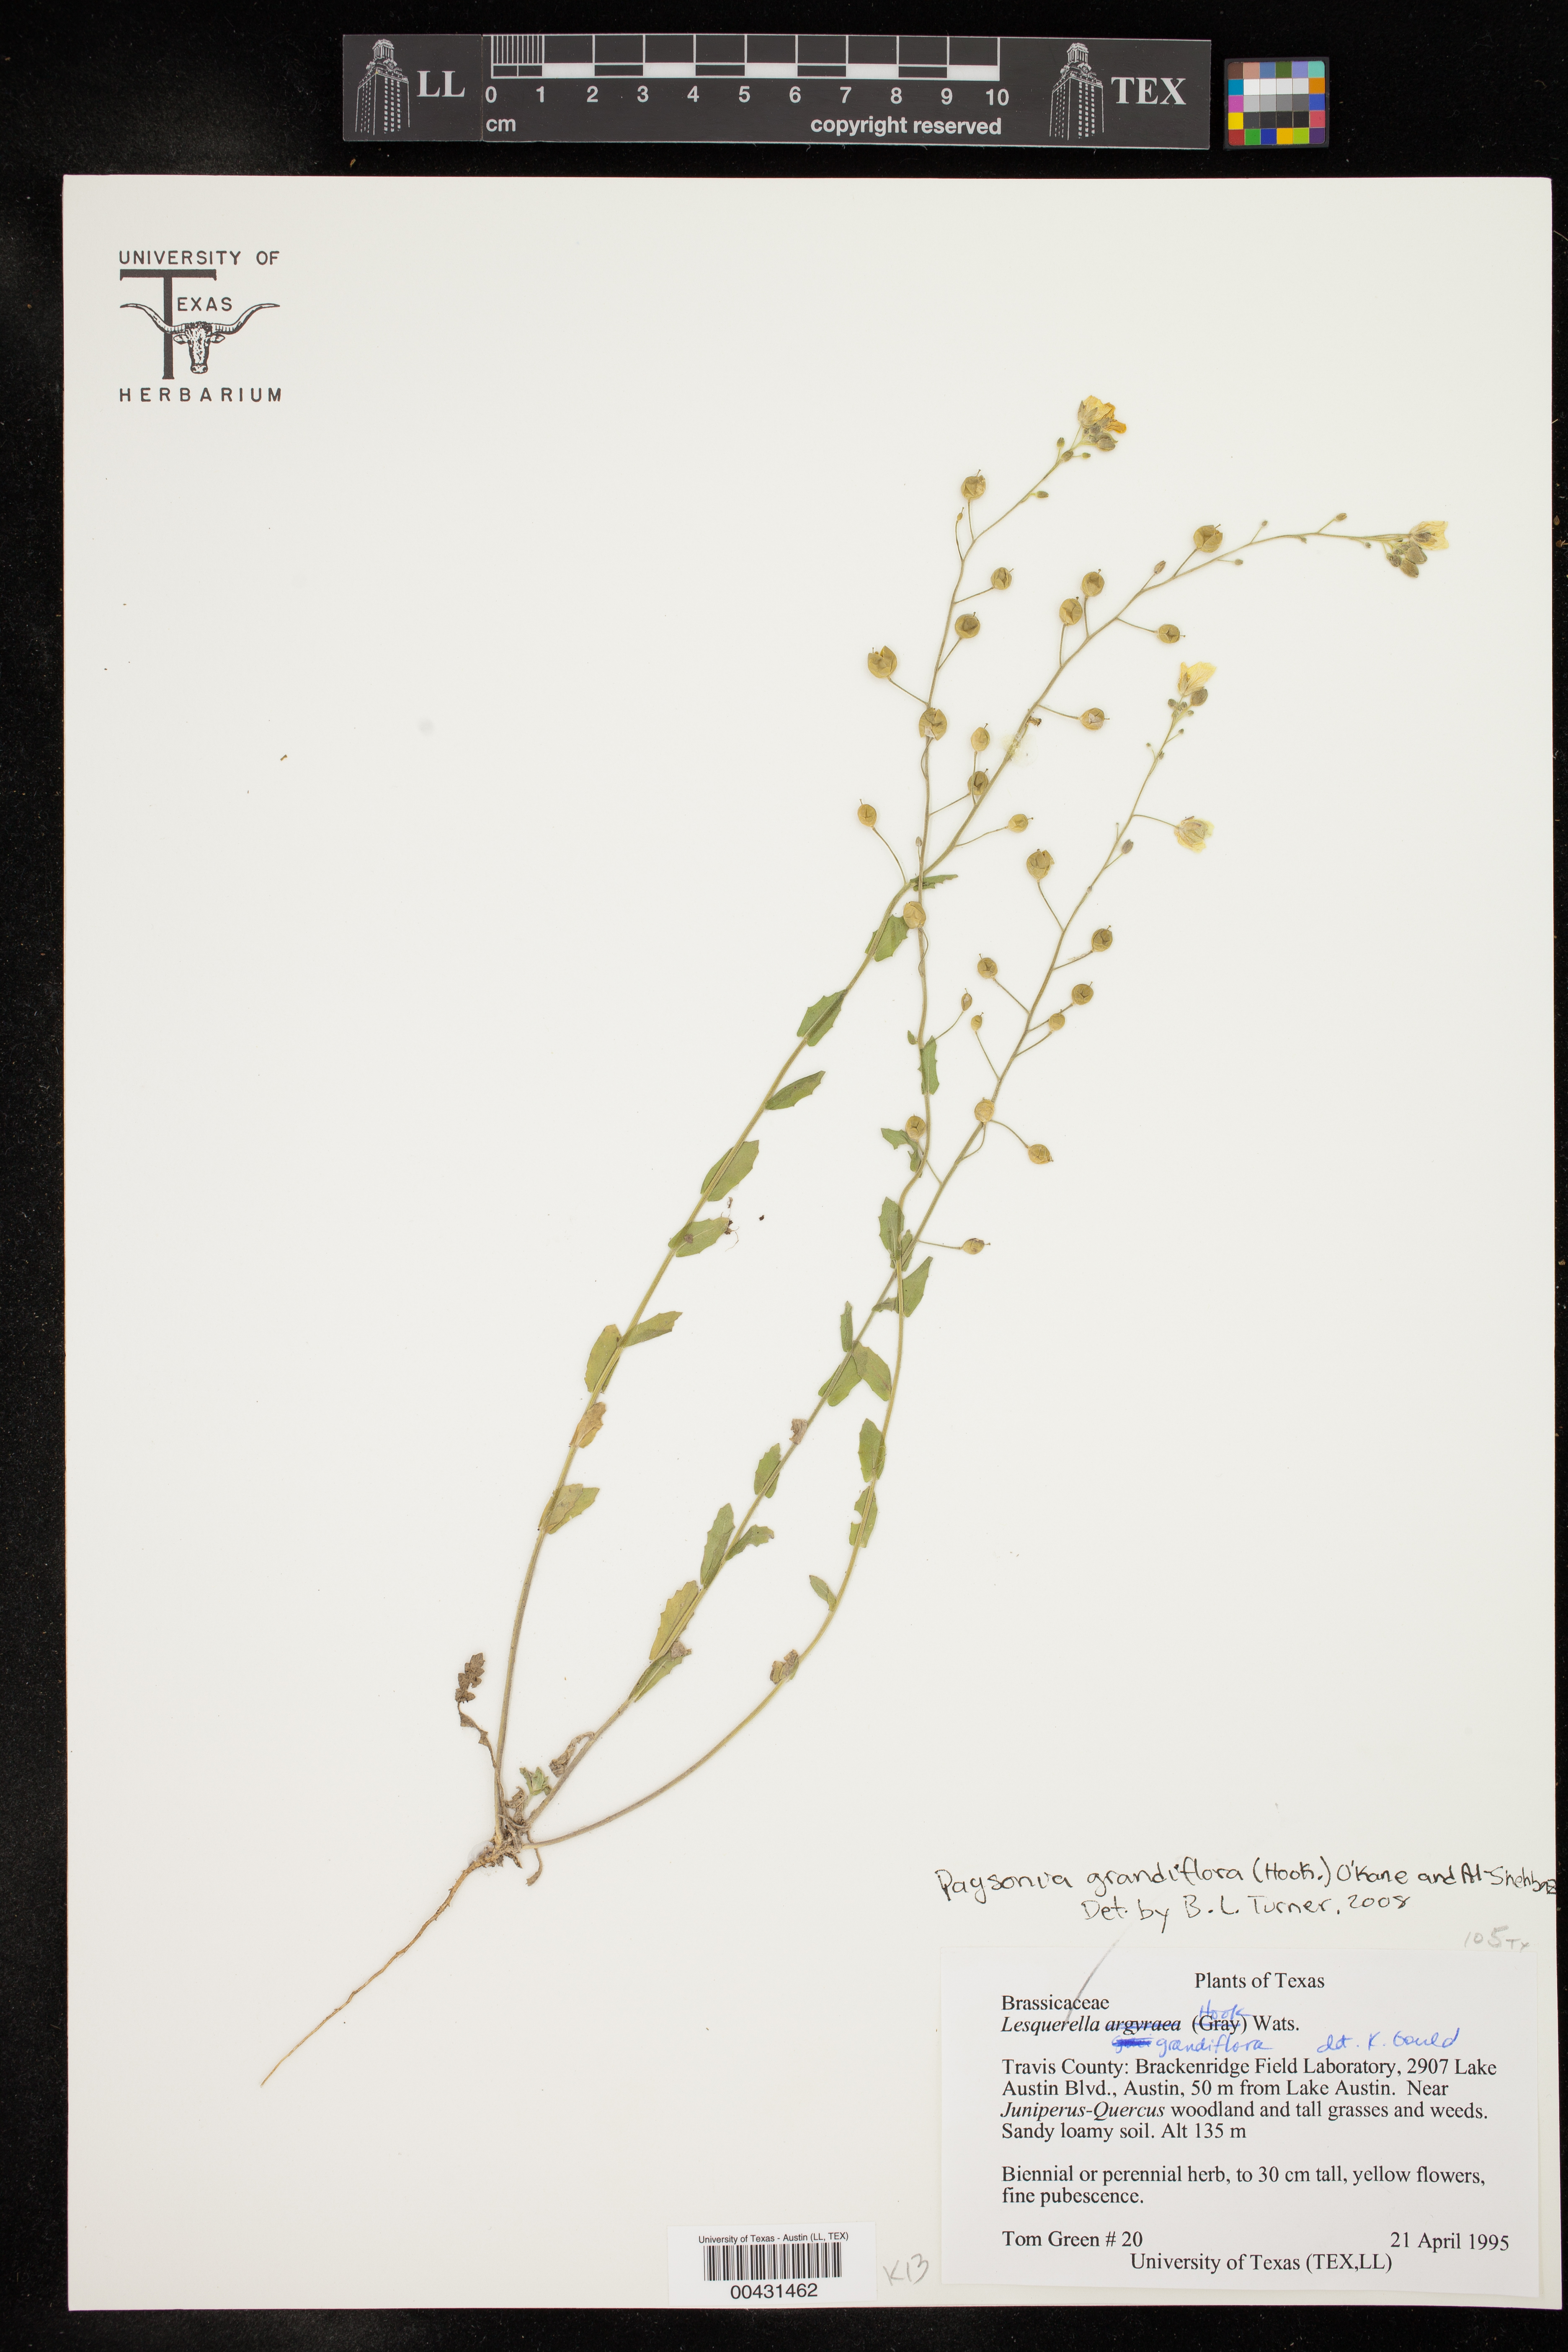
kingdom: Plantae
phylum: Tracheophyta
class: Magnoliopsida
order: Brassicales
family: Brassicaceae
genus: Paysonia
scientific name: Paysonia grandiflora
